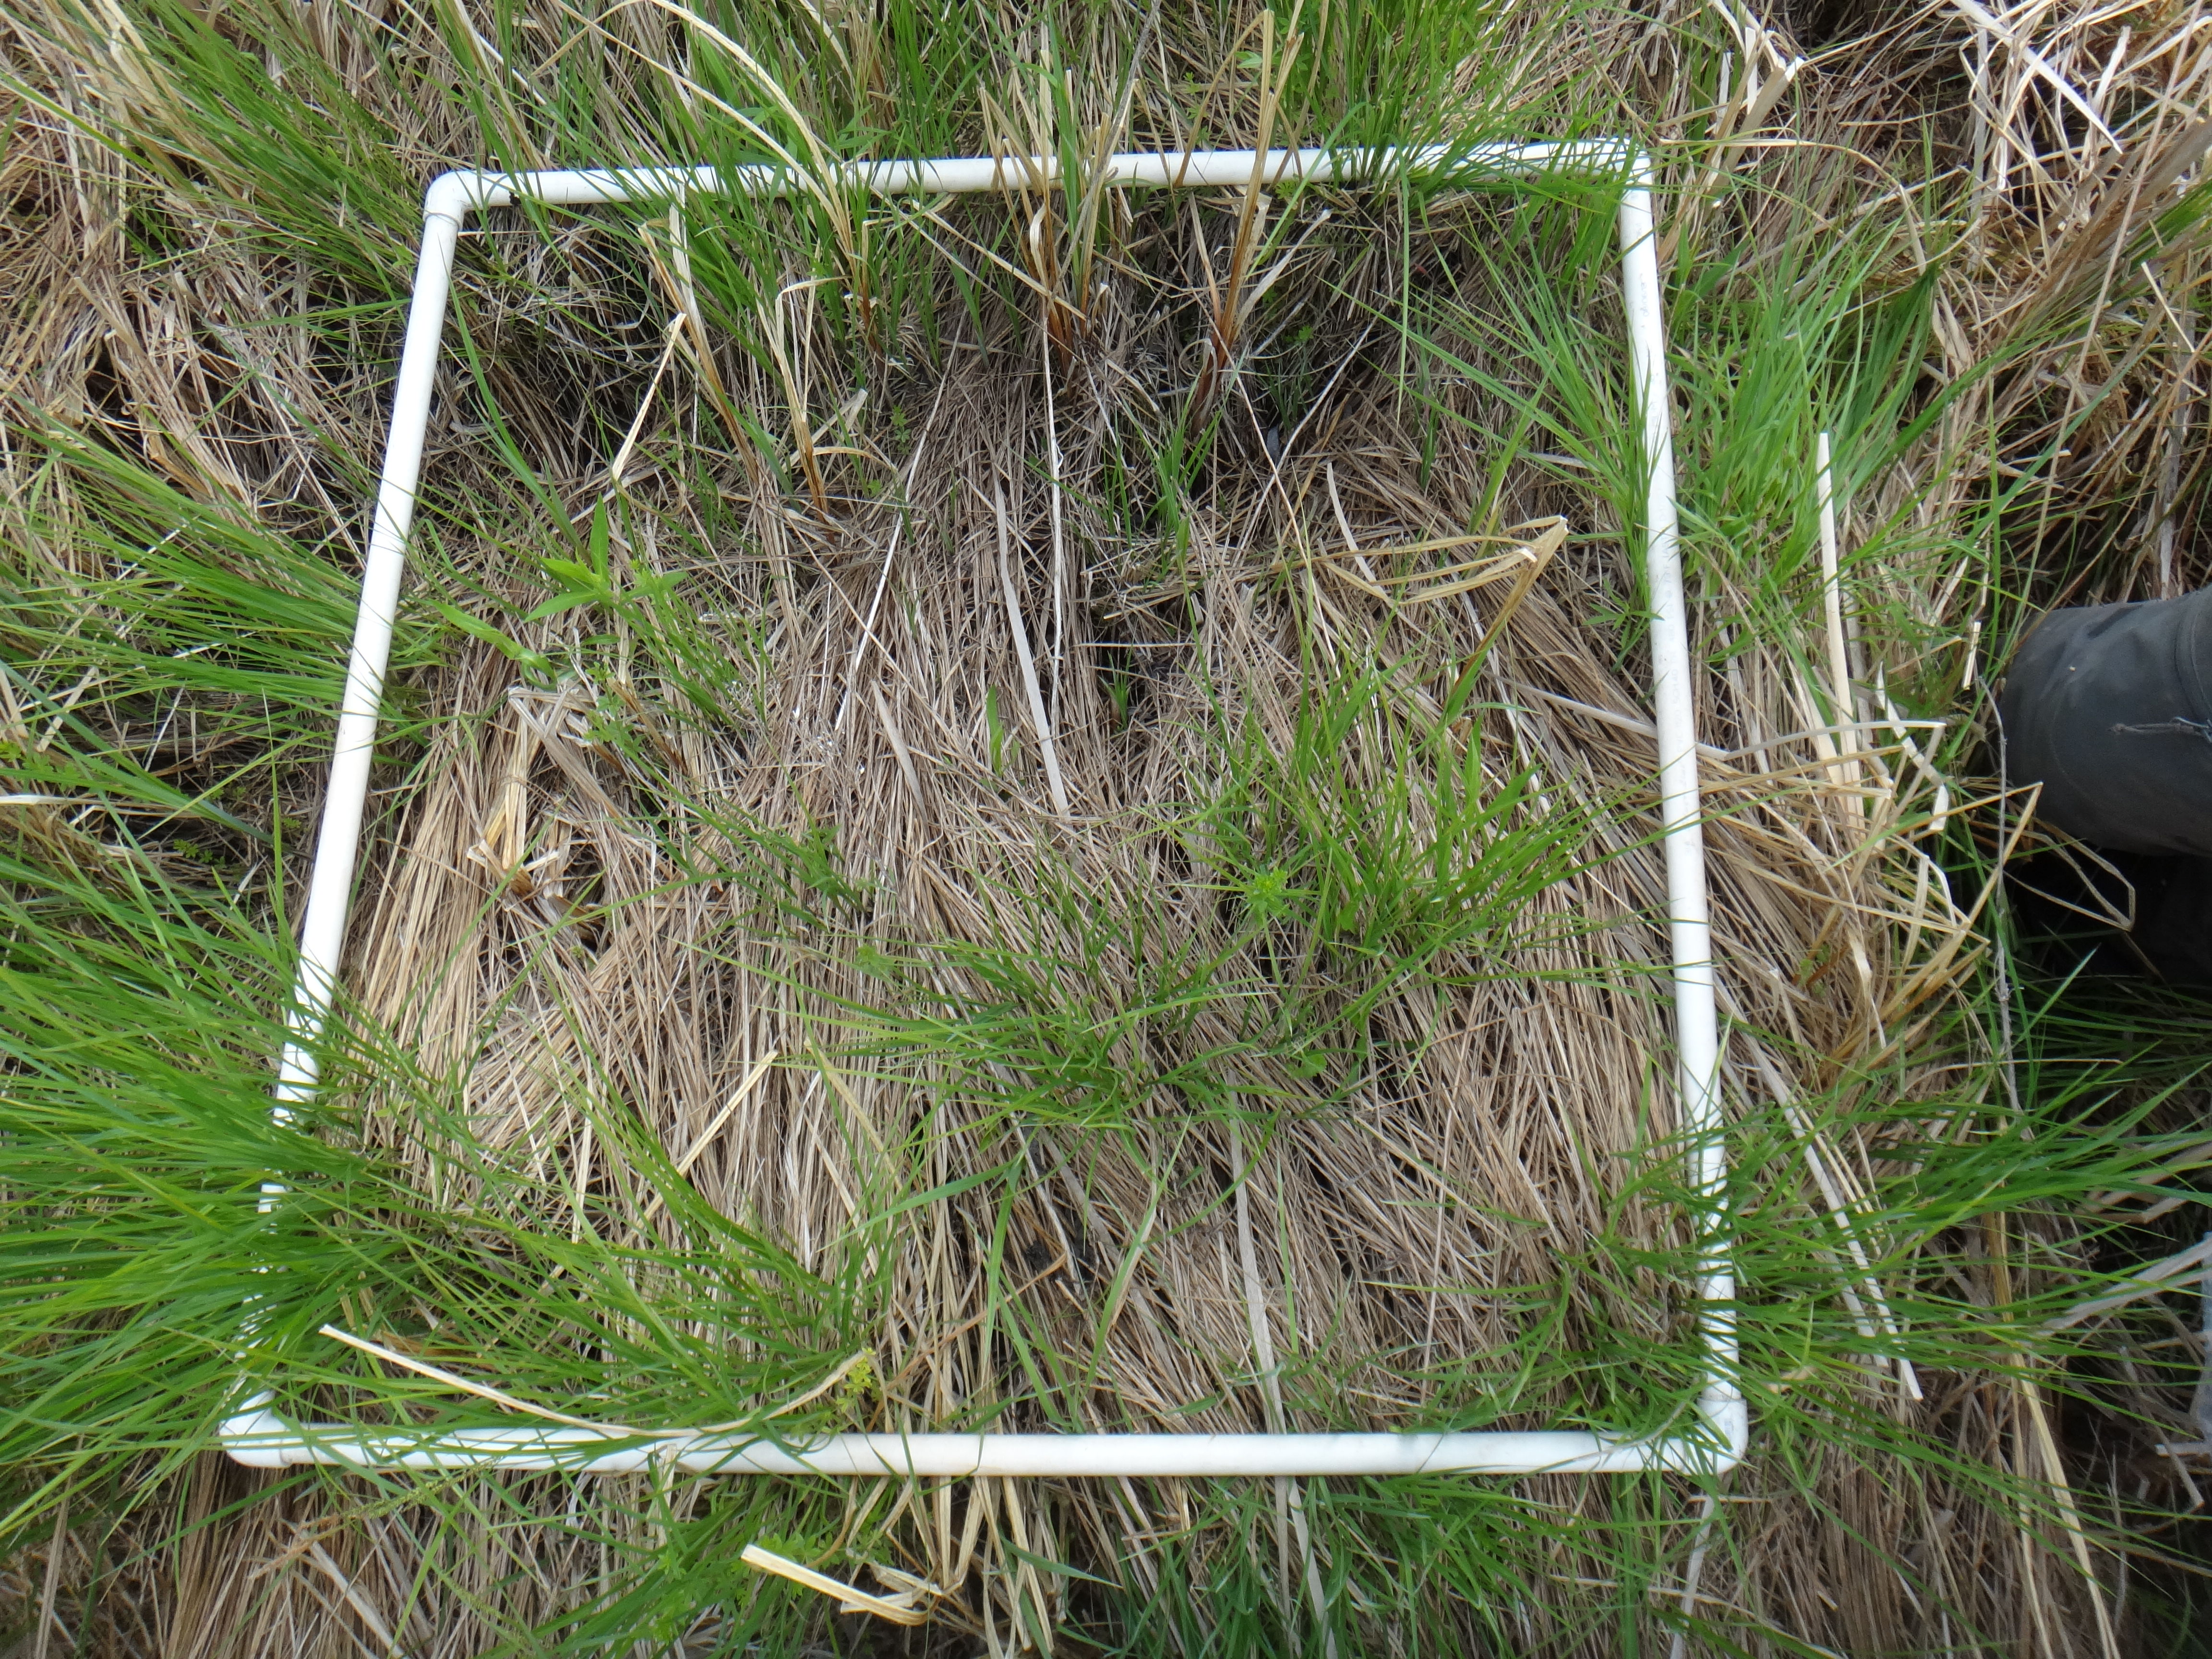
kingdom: Plantae
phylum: Tracheophyta
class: Magnoliopsida
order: Lamiales
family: Lamiaceae
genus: Mentha
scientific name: Mentha canadensis
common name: American corn mint
